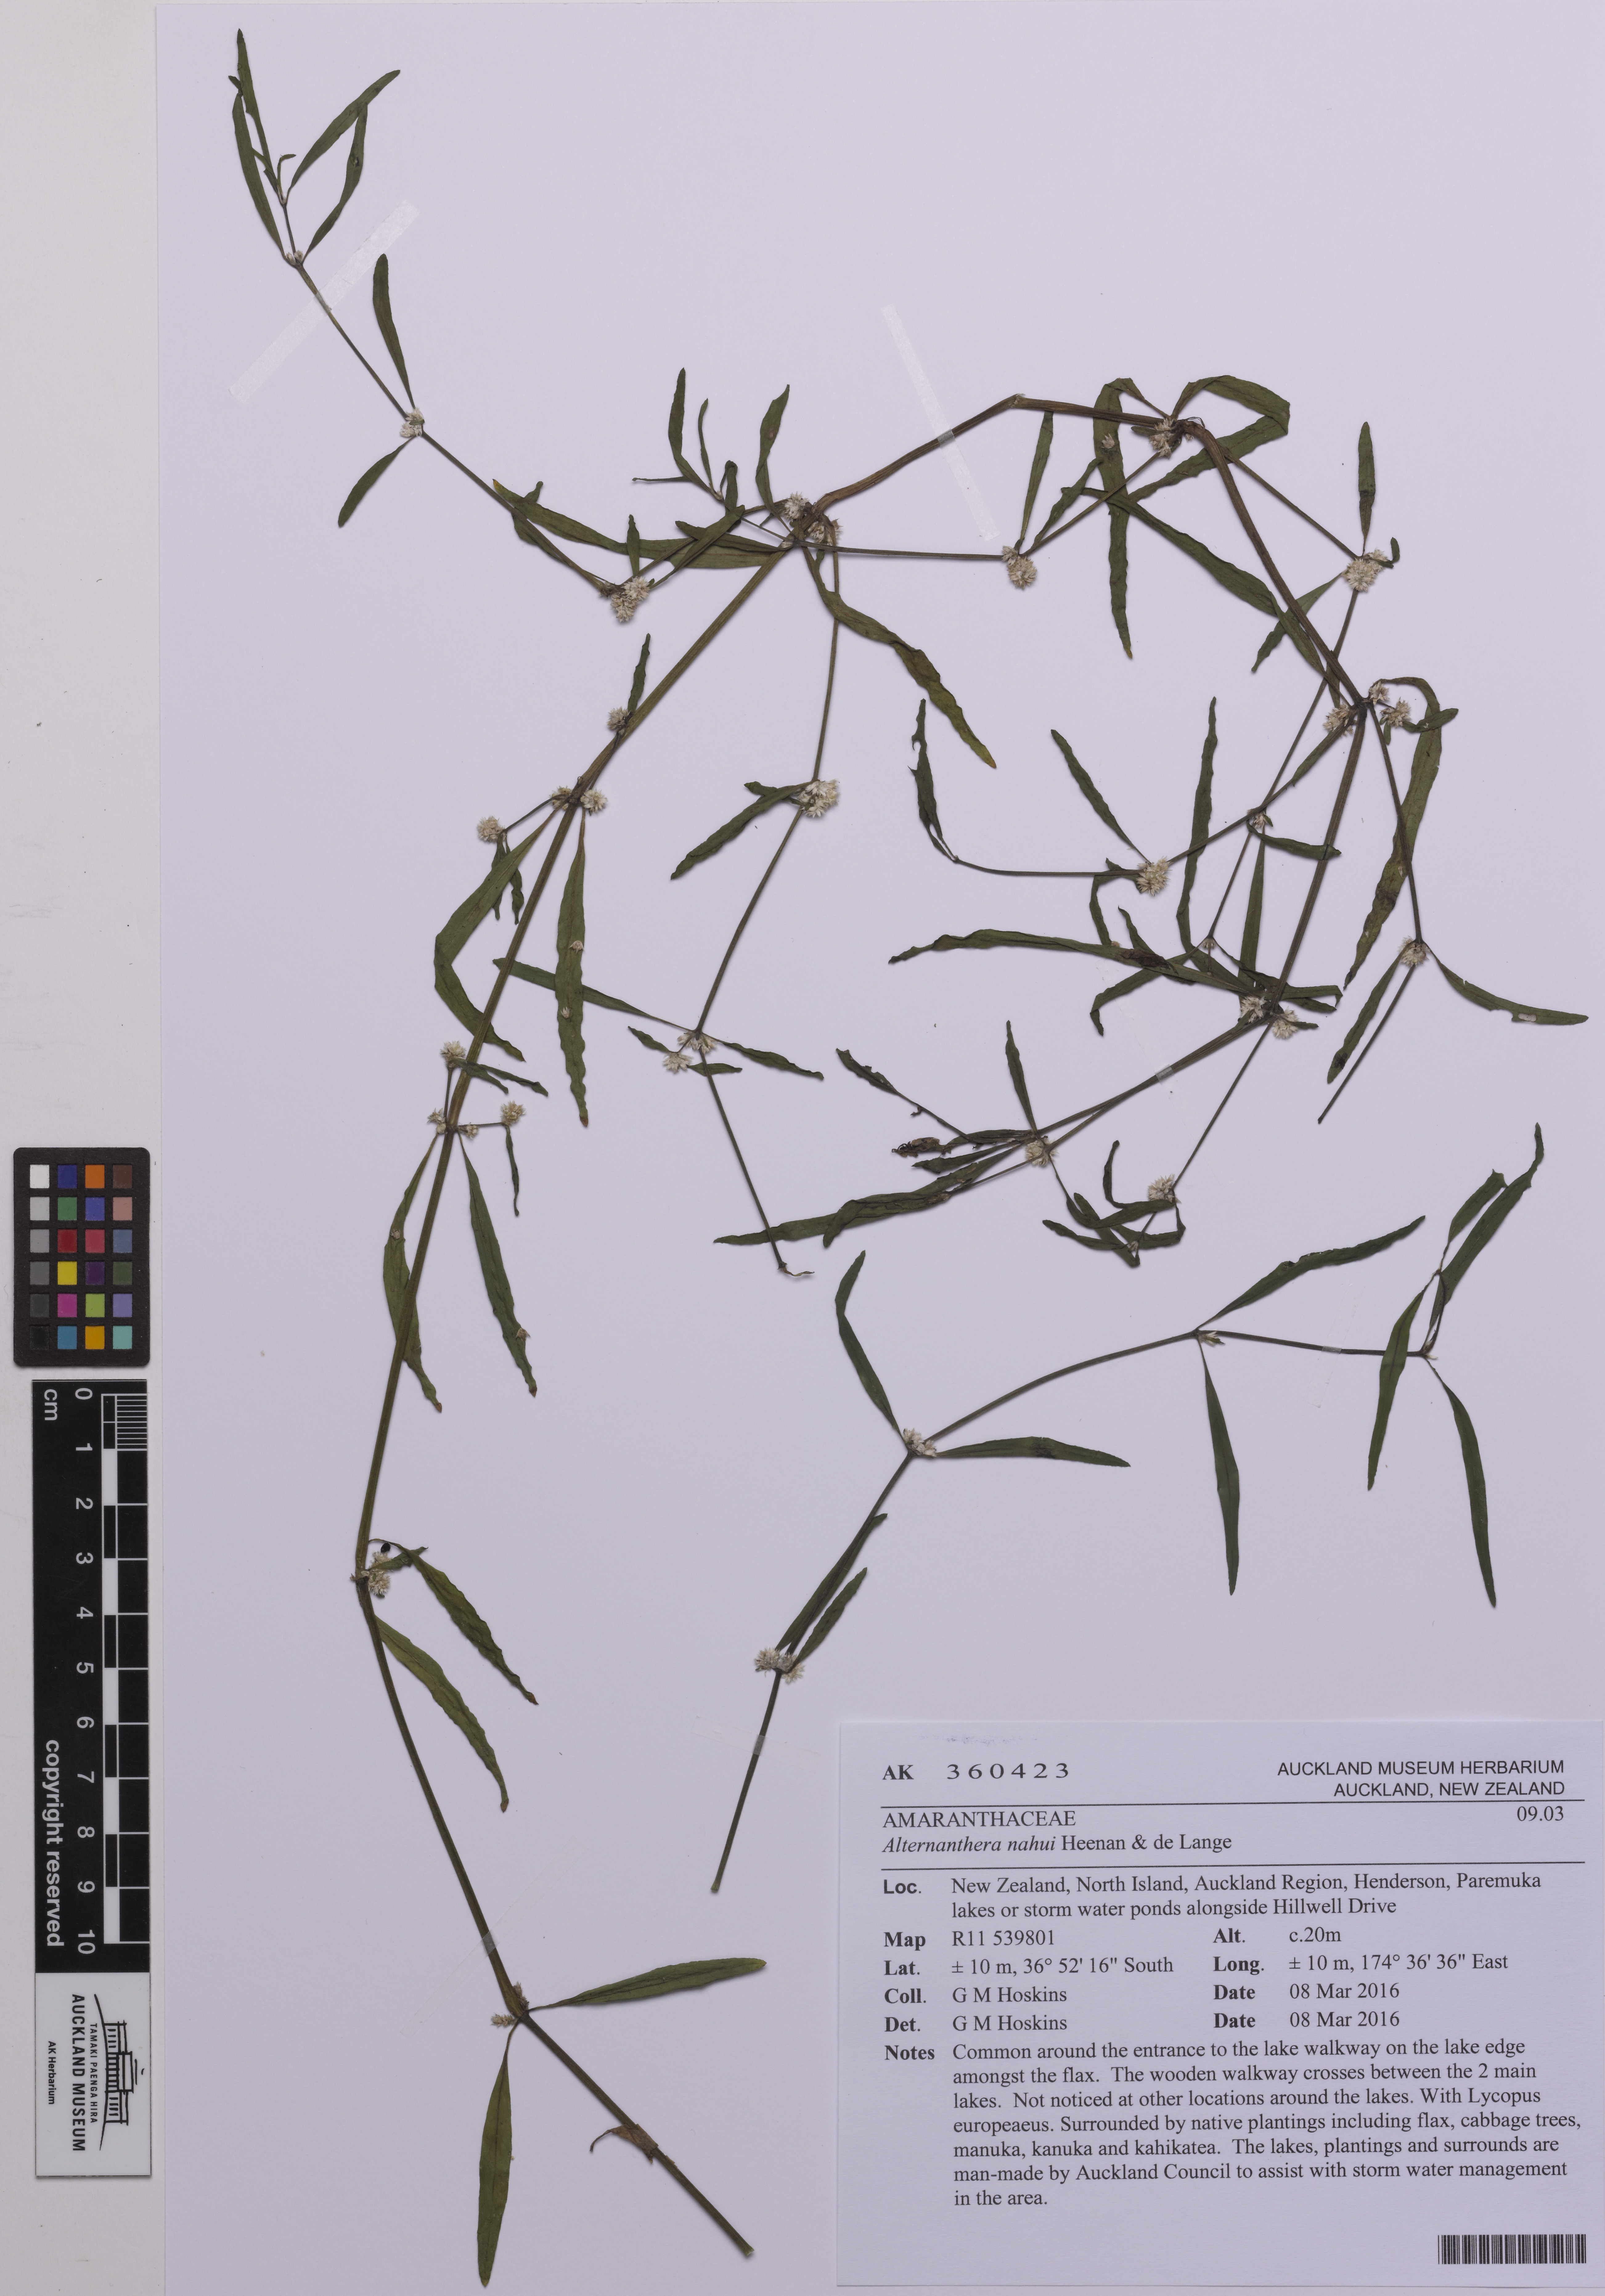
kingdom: Plantae
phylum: Tracheophyta
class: Magnoliopsida
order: Caryophyllales
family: Amaranthaceae
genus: Alternanthera
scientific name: Alternanthera nahui
